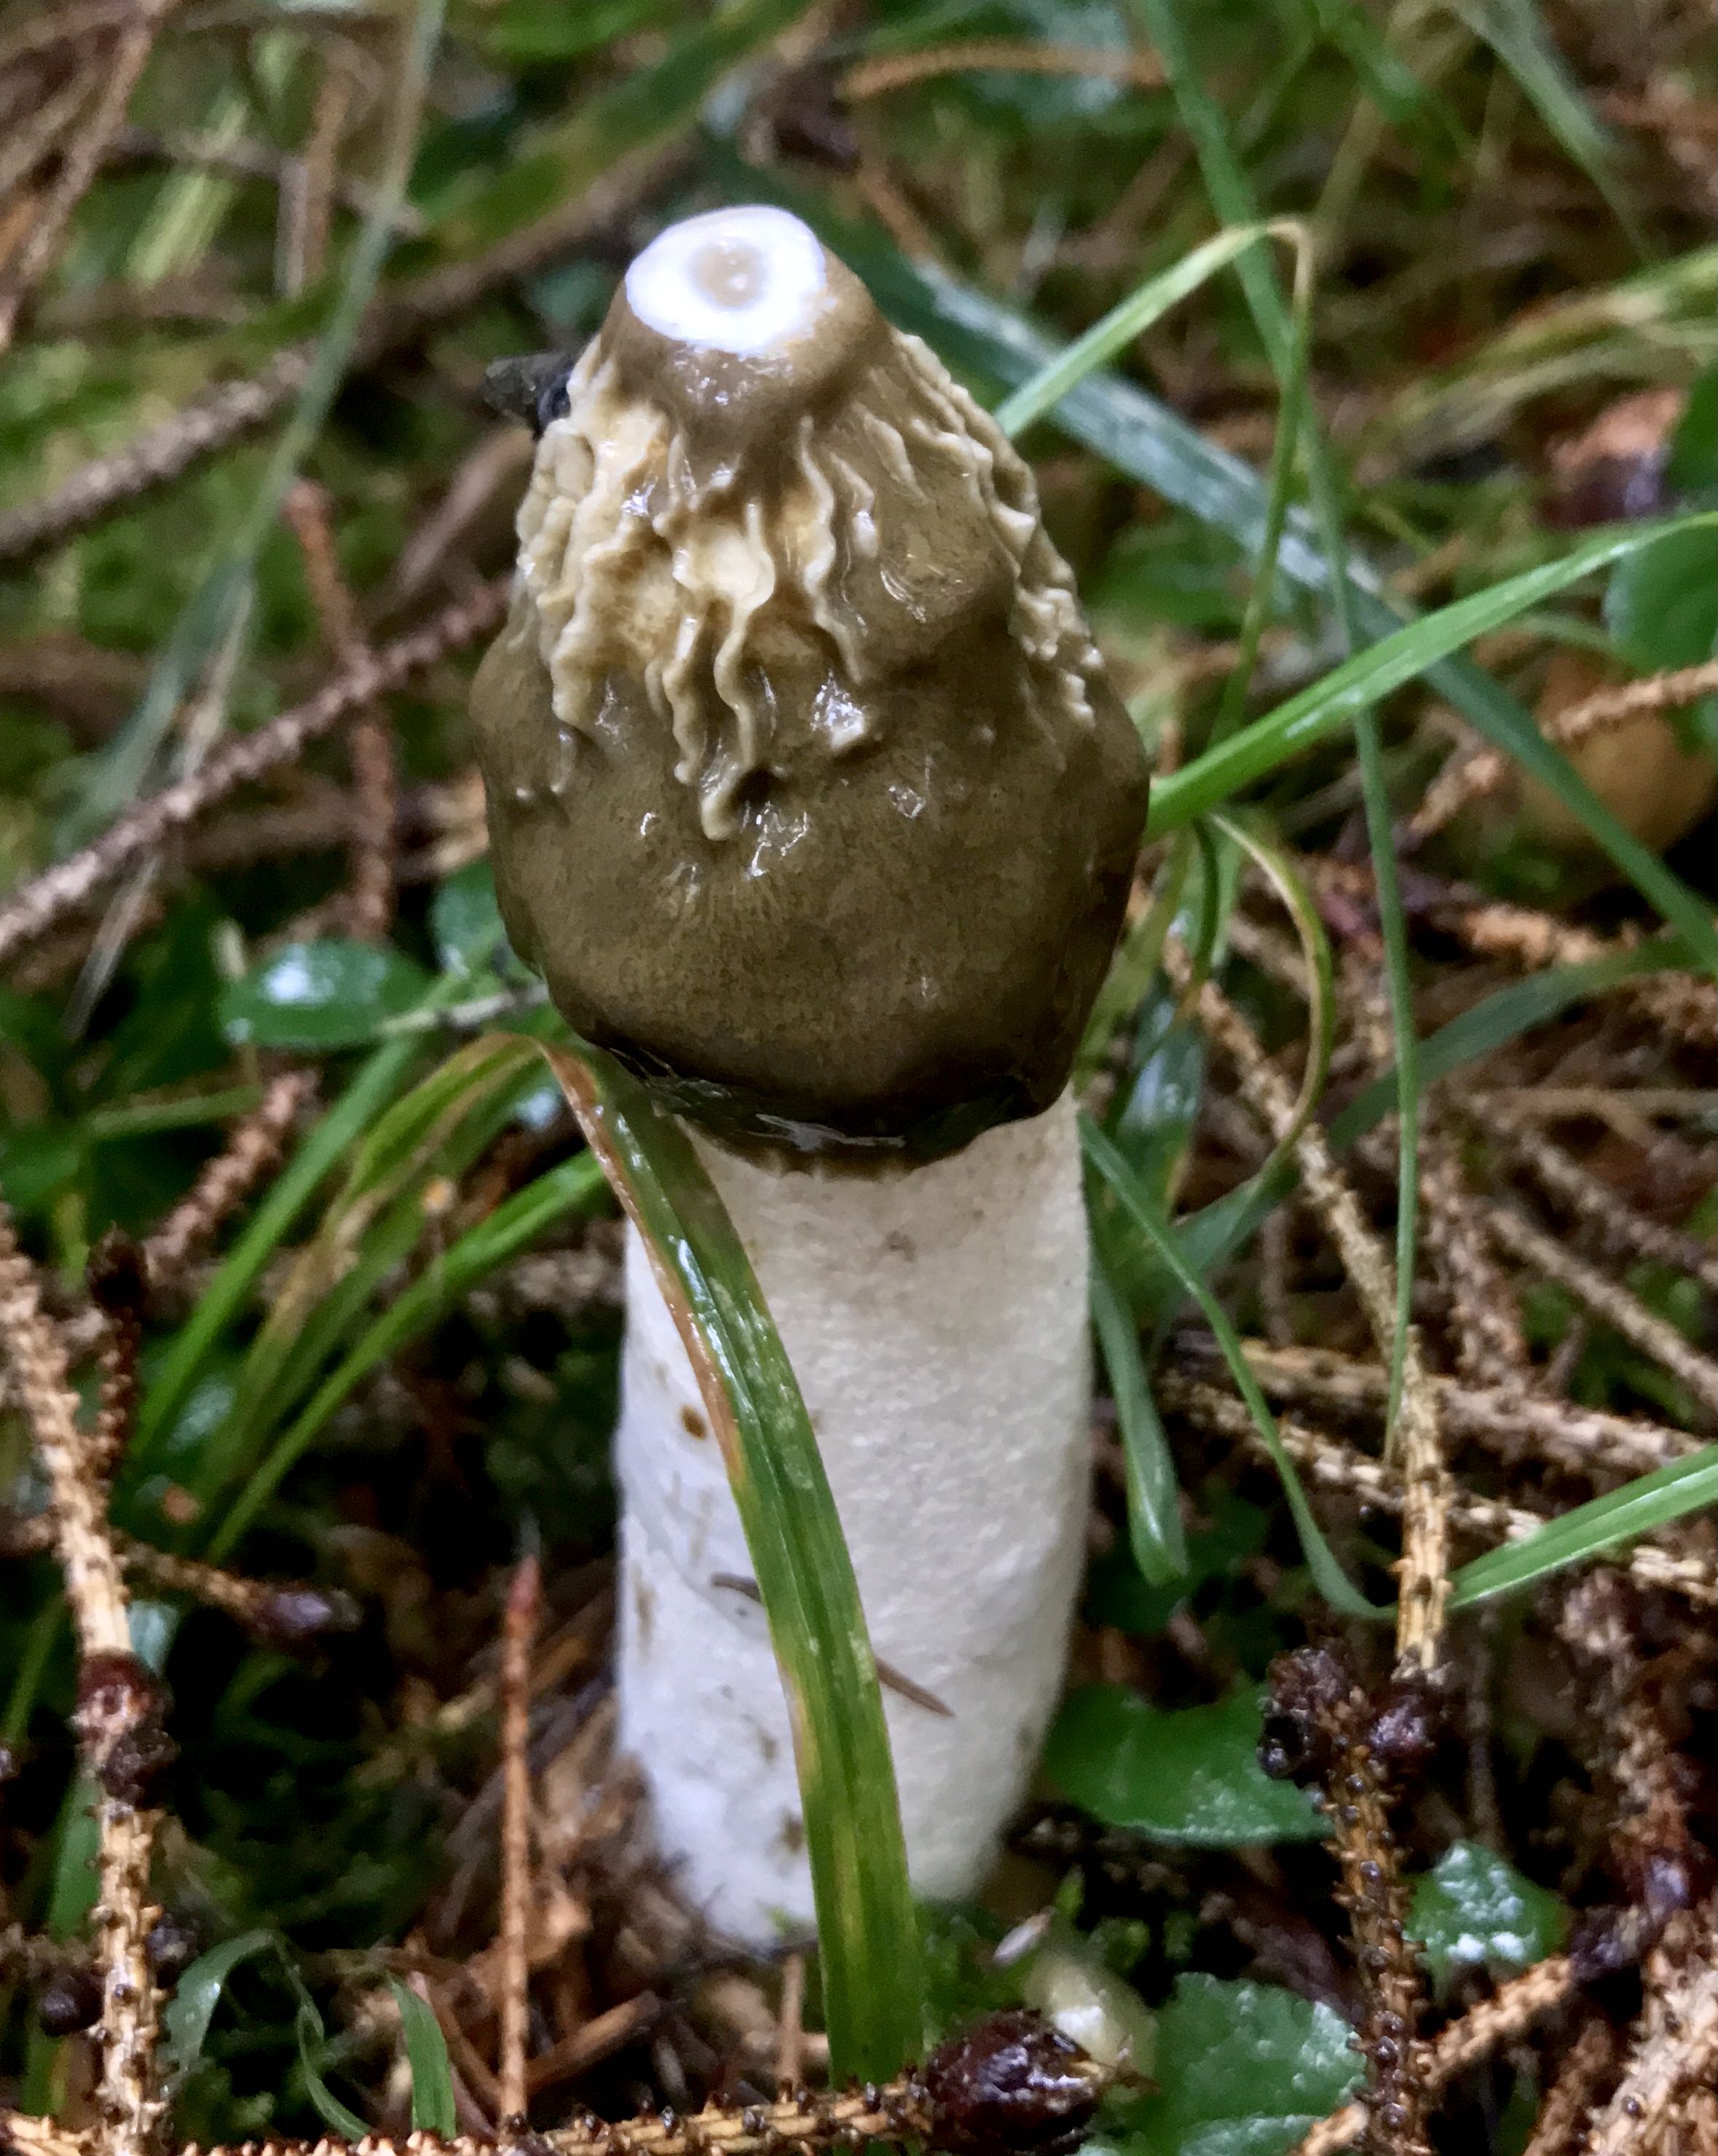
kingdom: Fungi
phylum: Basidiomycota
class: Agaricomycetes
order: Phallales
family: Phallaceae
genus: Phallus
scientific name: Phallus impudicus
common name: almindelig stinksvamp
